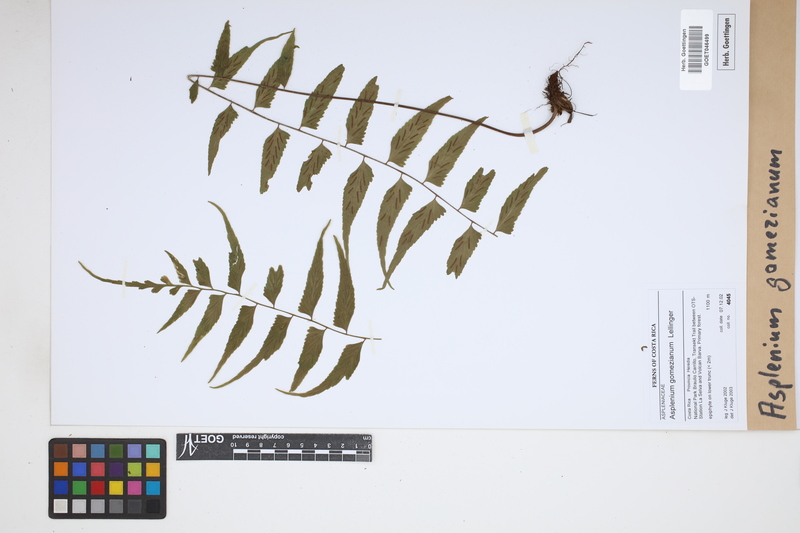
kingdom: Plantae
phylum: Tracheophyta
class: Polypodiopsida
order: Polypodiales
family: Aspleniaceae
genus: Asplenium
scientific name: Asplenium gomezianum
